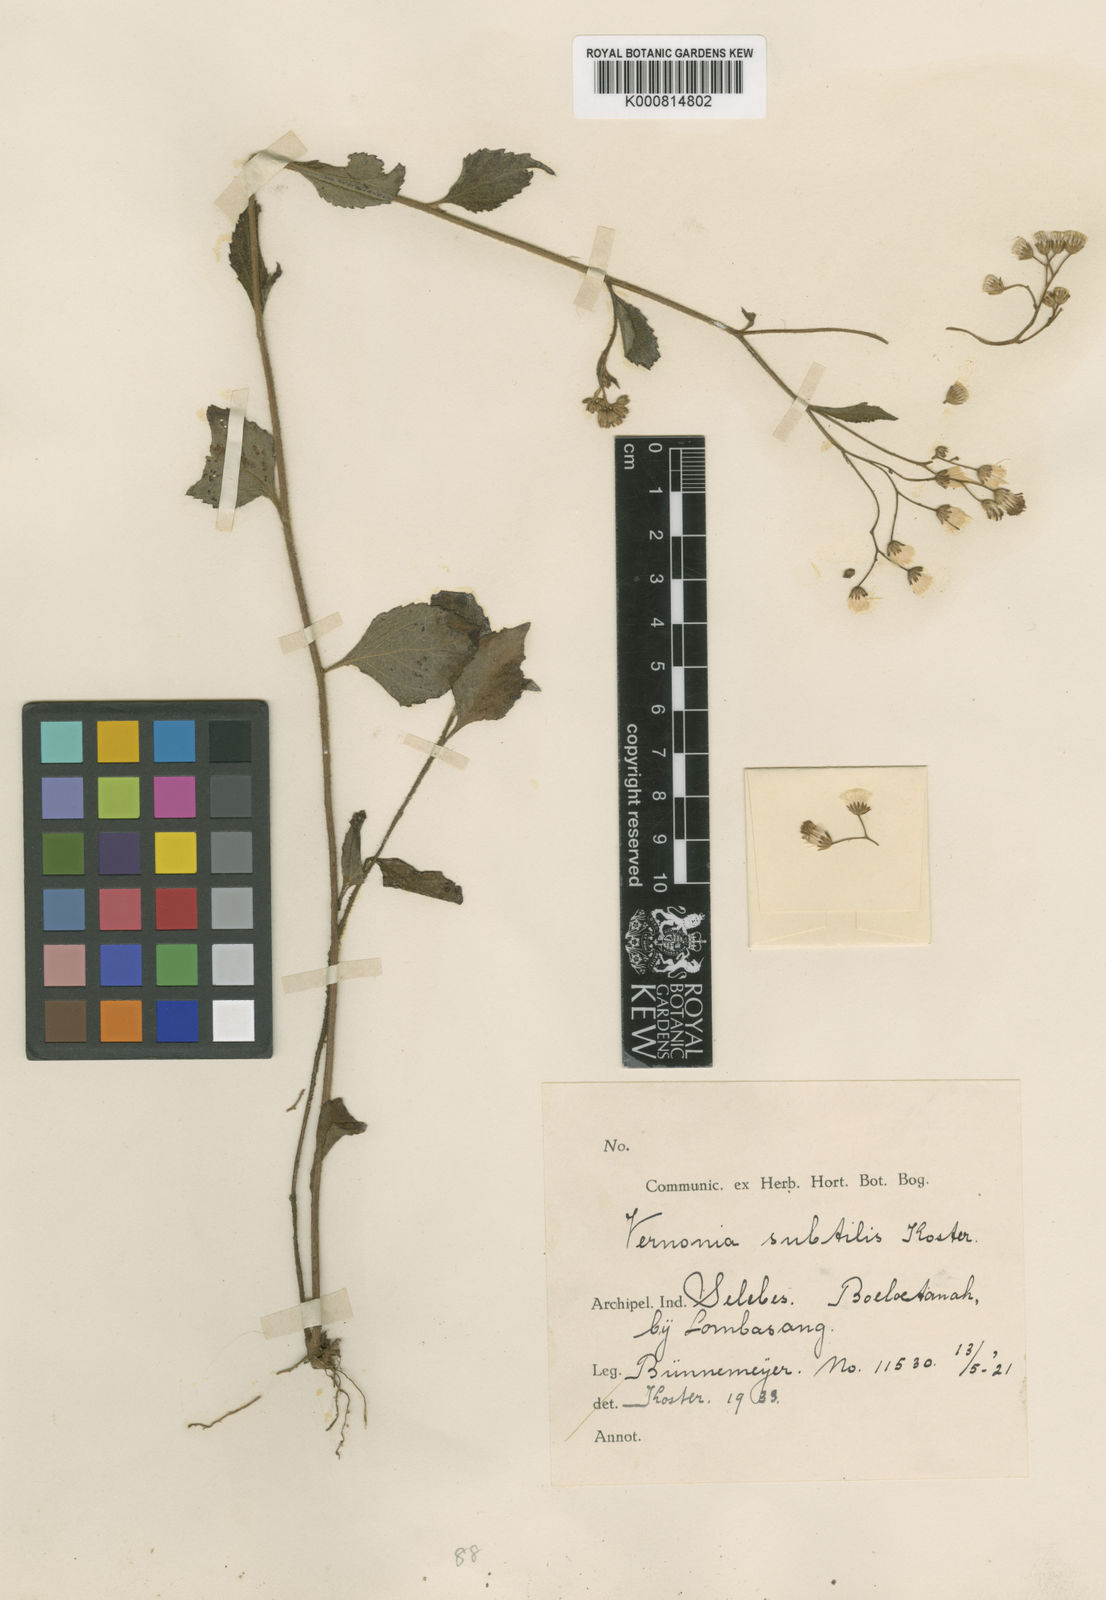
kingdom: Plantae
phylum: Tracheophyta
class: Magnoliopsida
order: Asterales
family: Asteraceae
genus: Vernonia
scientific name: Vernonia subtilis
